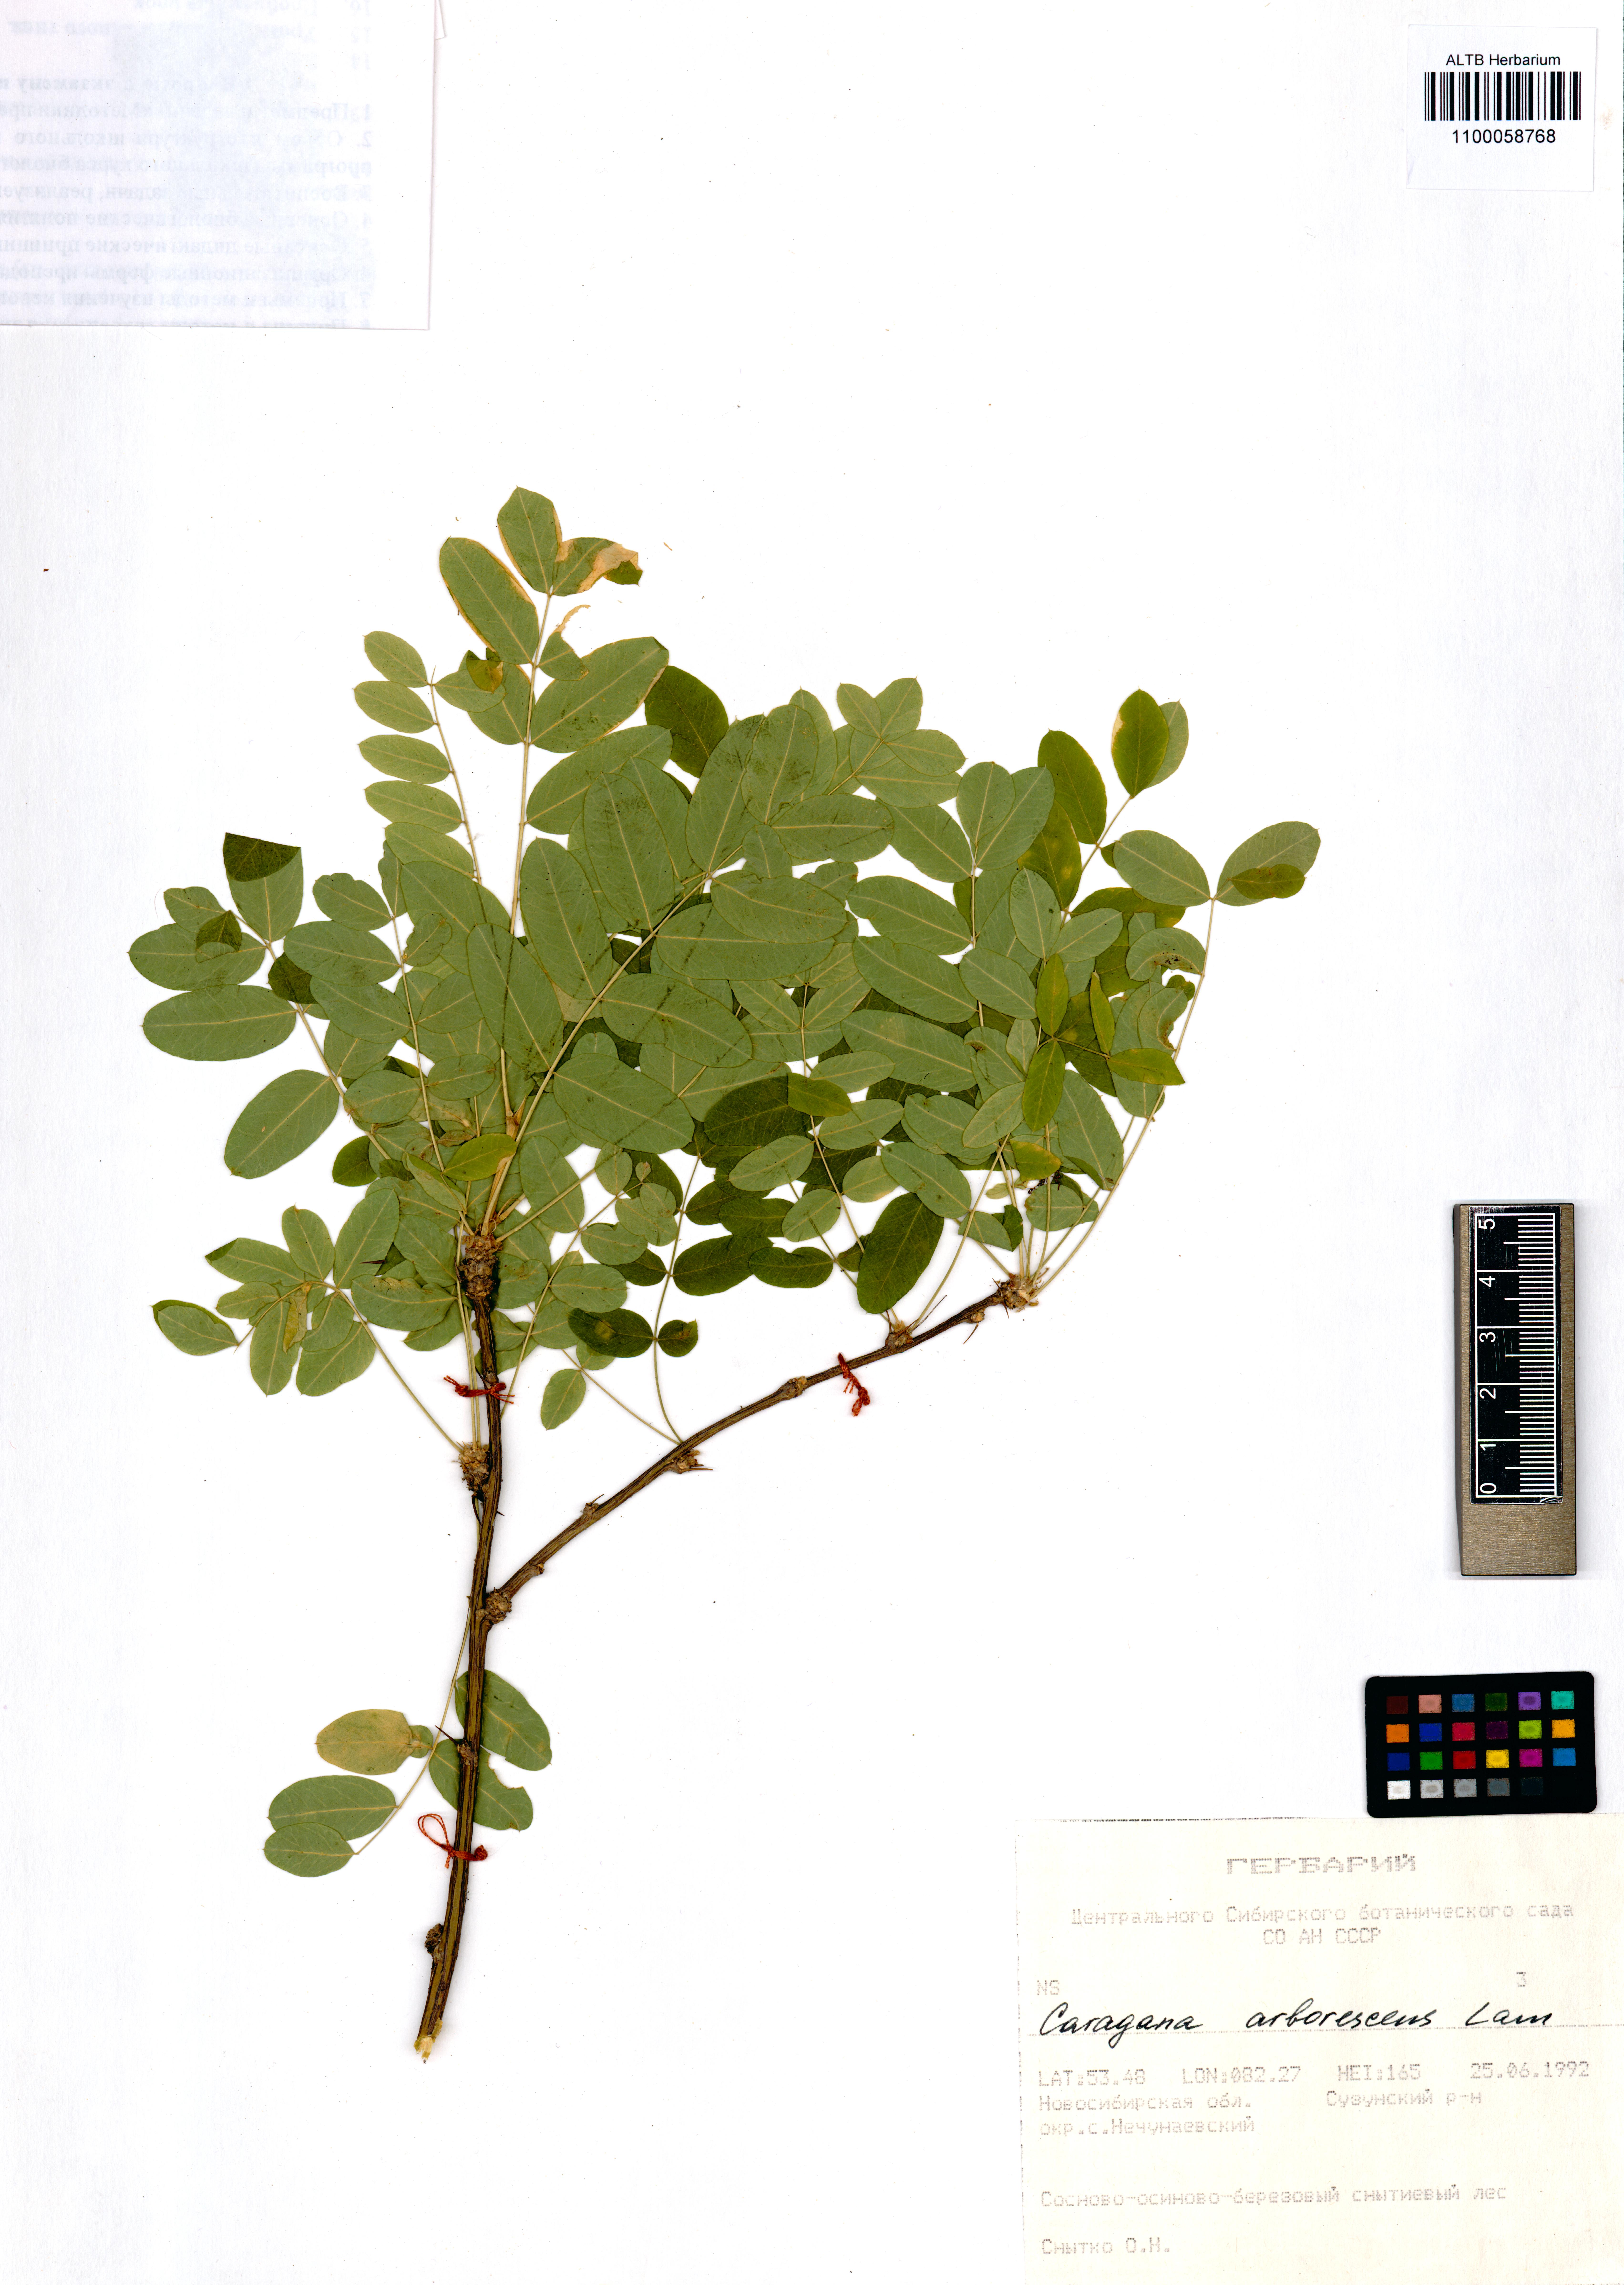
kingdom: Plantae
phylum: Tracheophyta
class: Magnoliopsida
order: Fabales
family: Fabaceae
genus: Caragana
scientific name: Caragana arborescens
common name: Siberian peashrub
